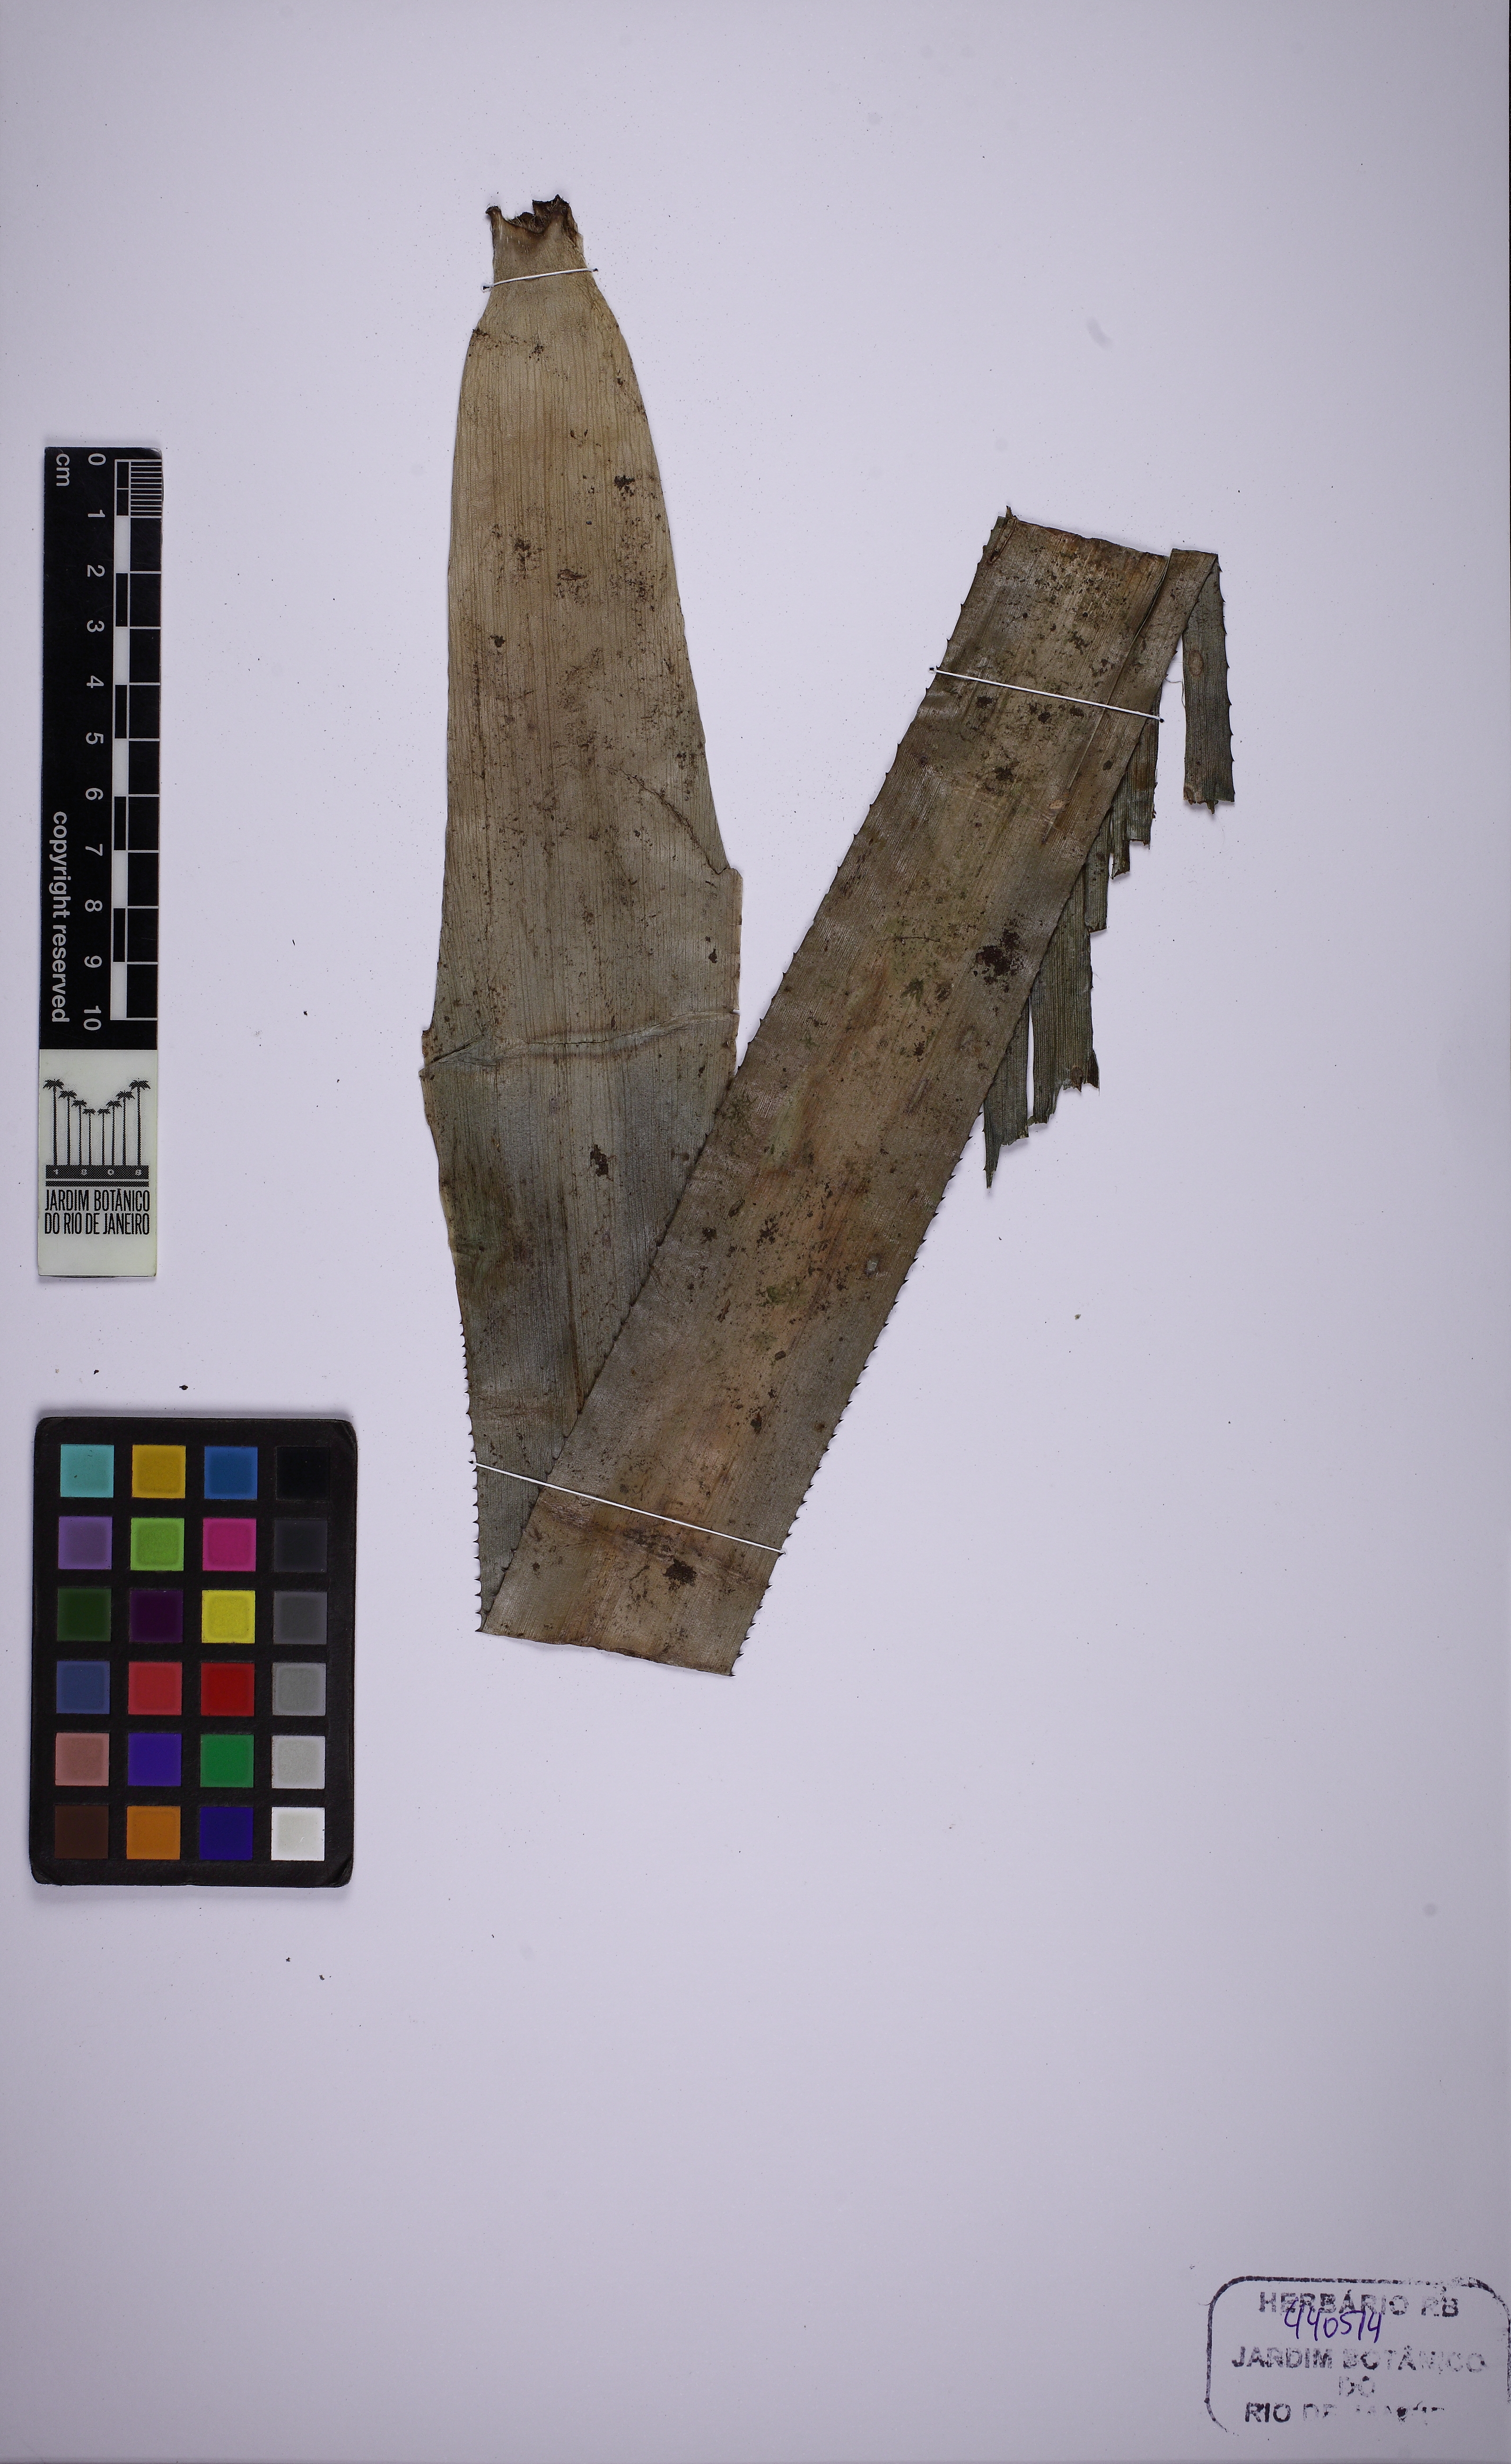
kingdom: Plantae
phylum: Tracheophyta
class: Liliopsida
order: Poales
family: Bromeliaceae
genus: Quesnelia
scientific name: Quesnelia lateralis
